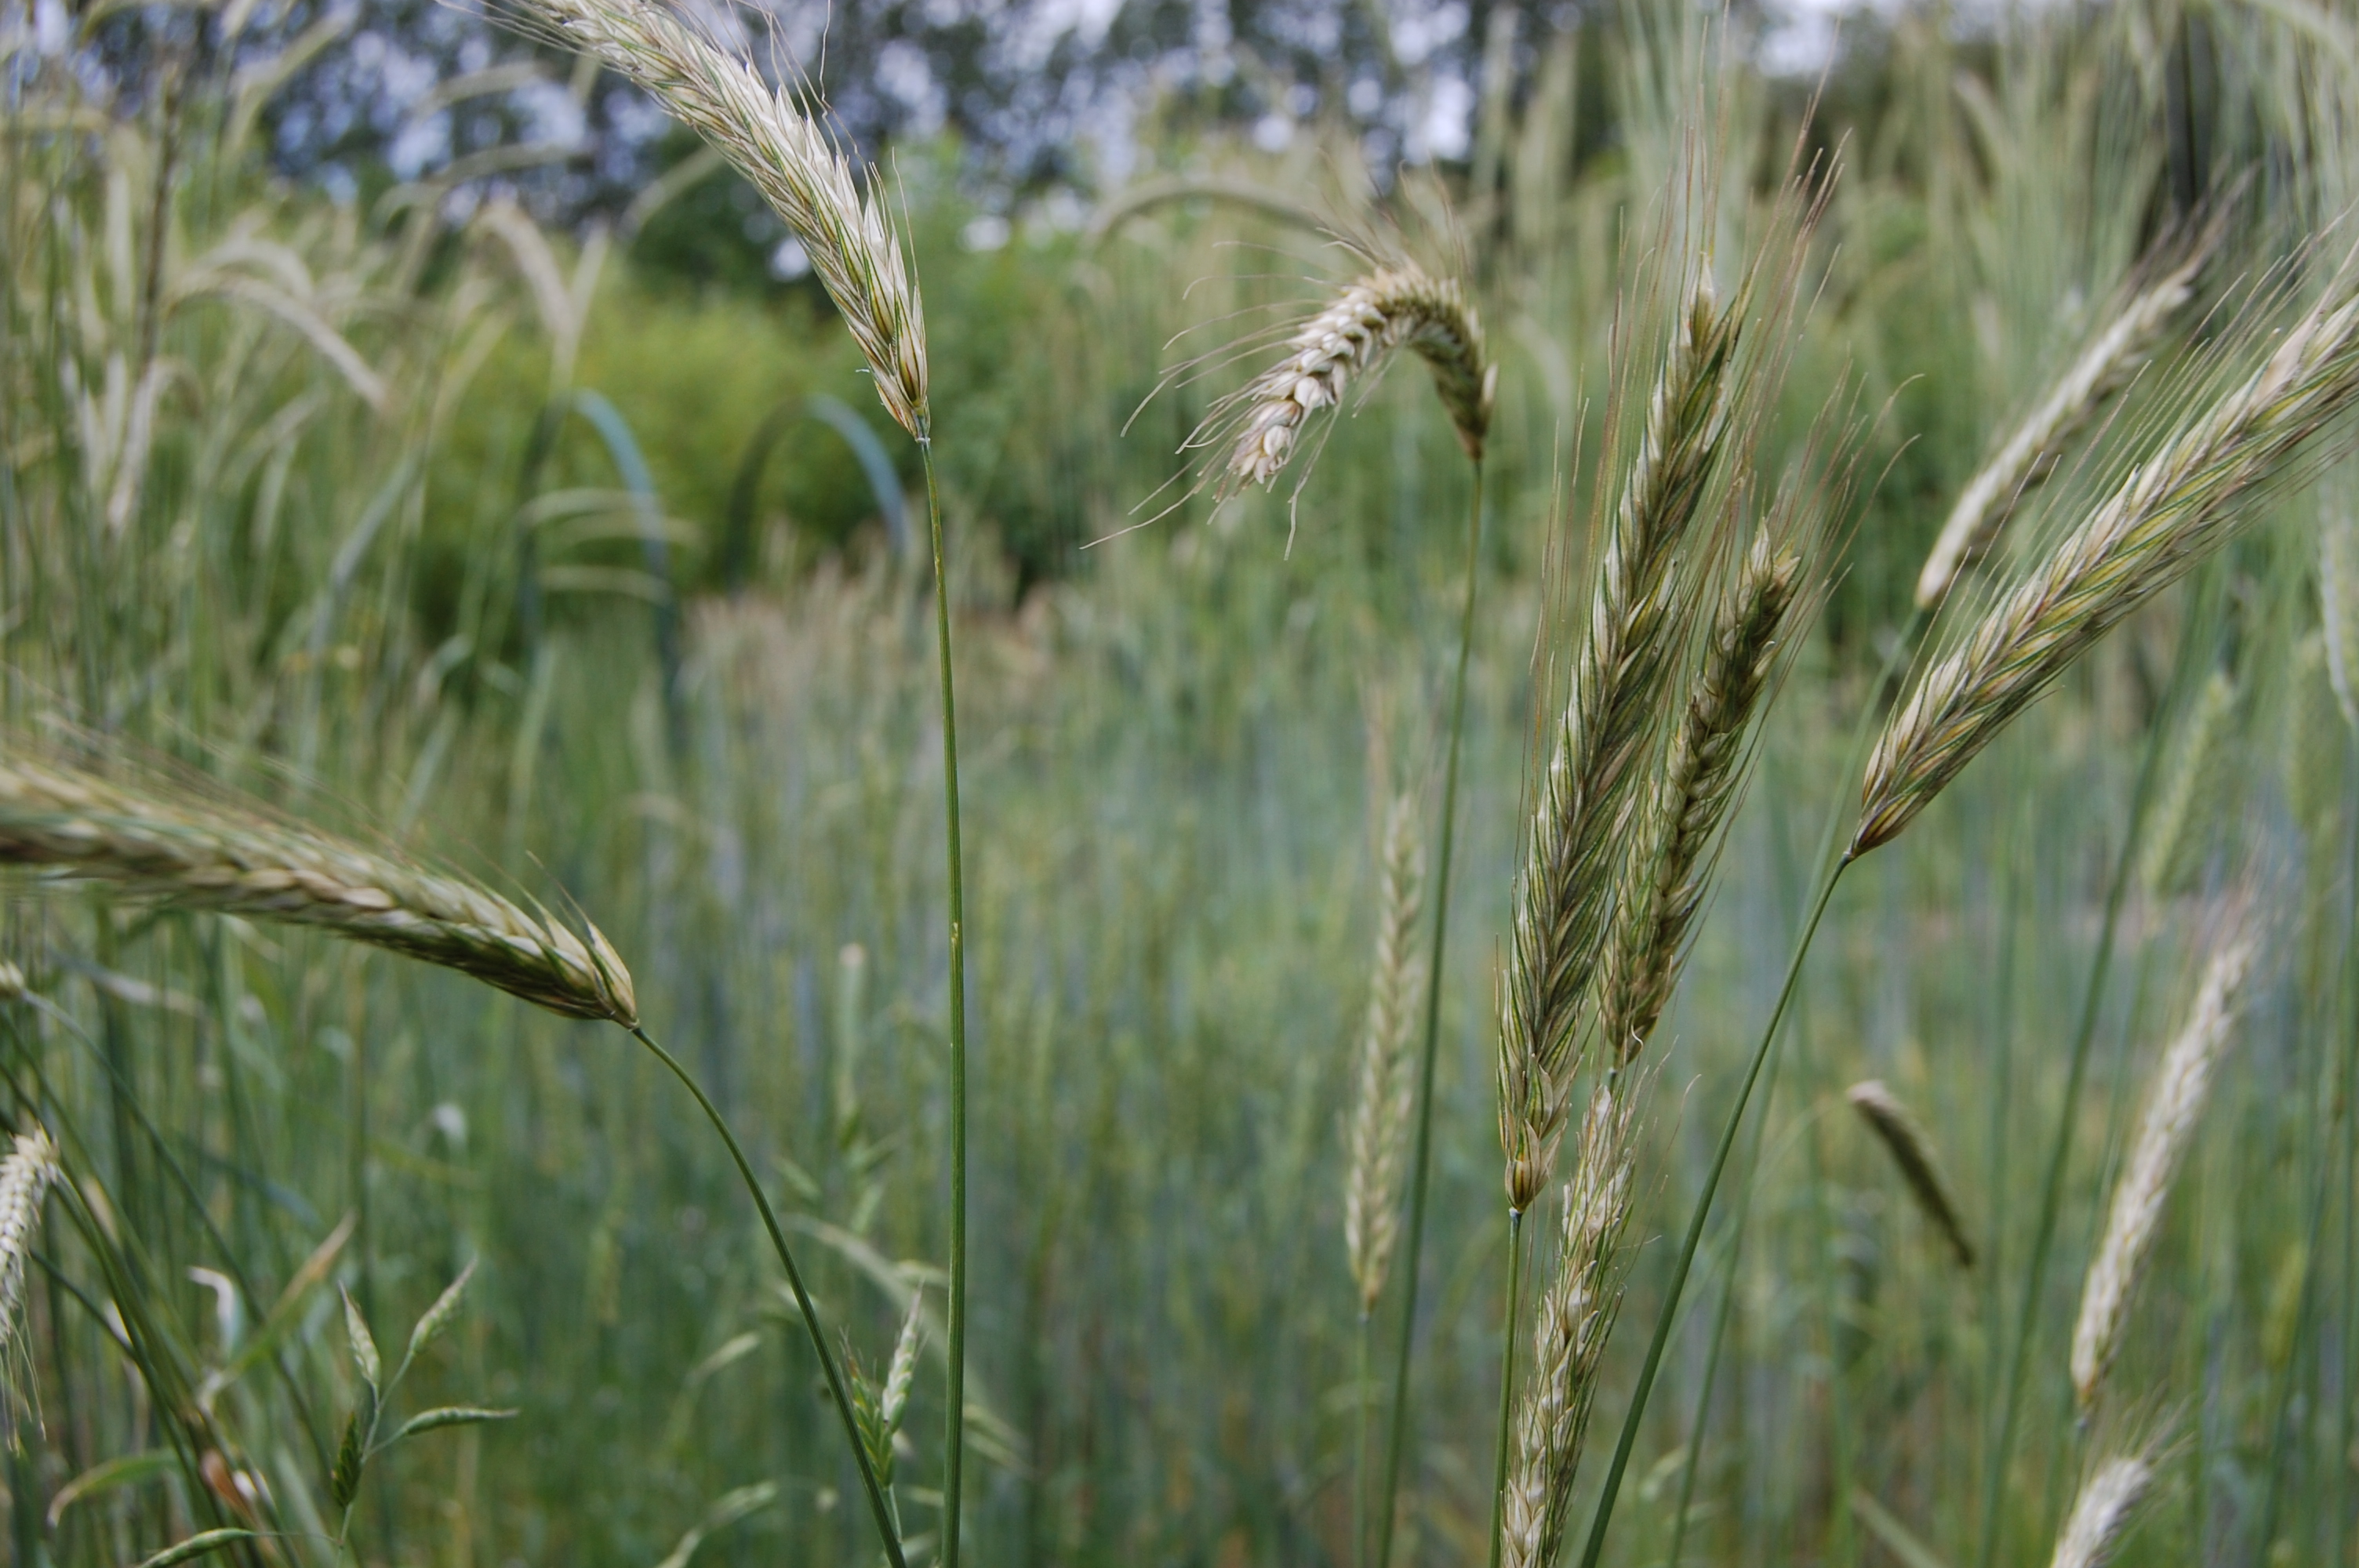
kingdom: Plantae
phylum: Tracheophyta
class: Liliopsida
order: Poales
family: Poaceae
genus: Secale
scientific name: Secale cereale
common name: Rye
